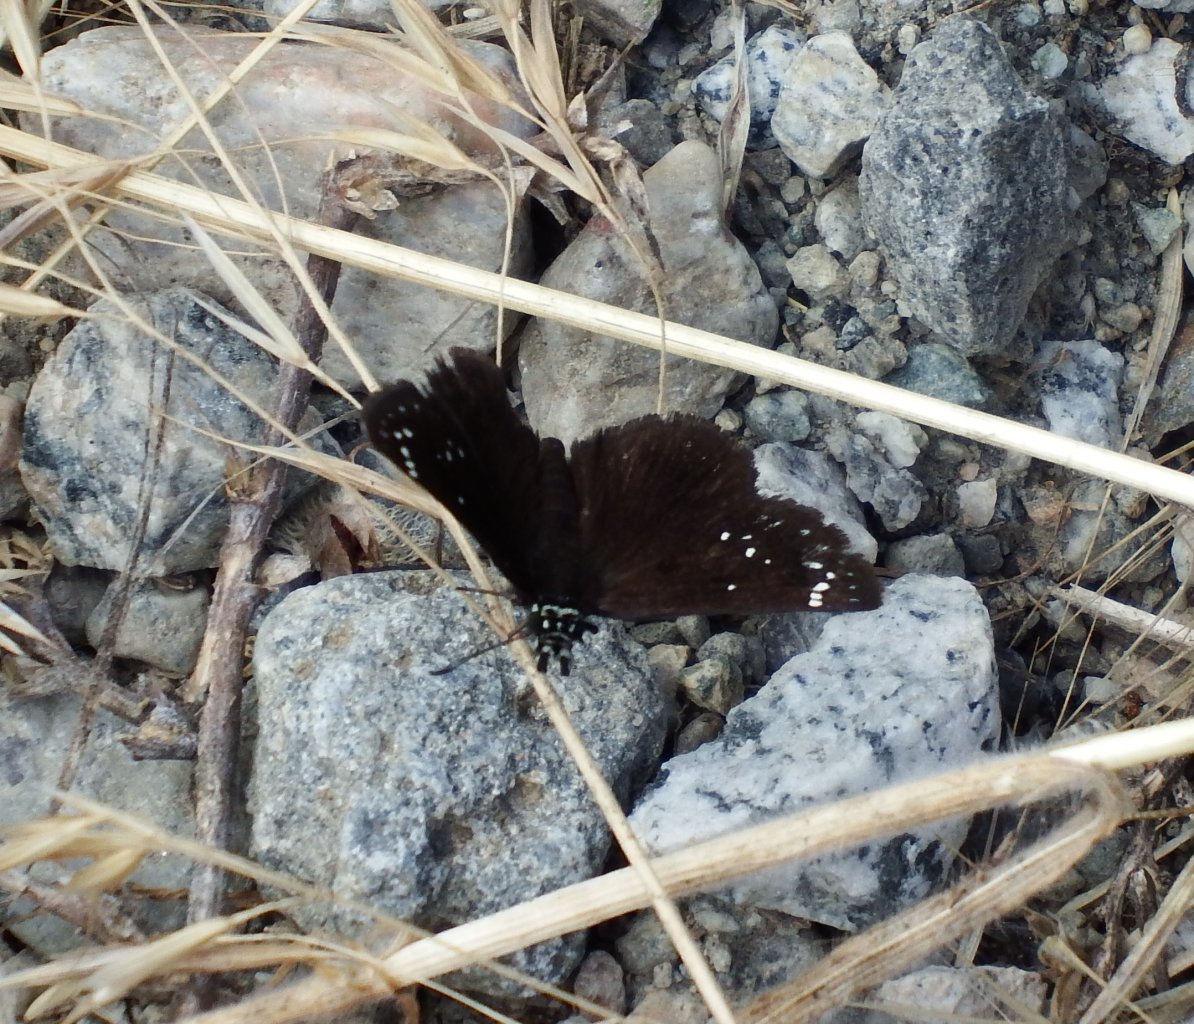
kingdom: Animalia
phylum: Arthropoda
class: Insecta
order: Lepidoptera
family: Hesperiidae
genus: Pholisora
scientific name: Pholisora catullus
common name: Common Sootywing
